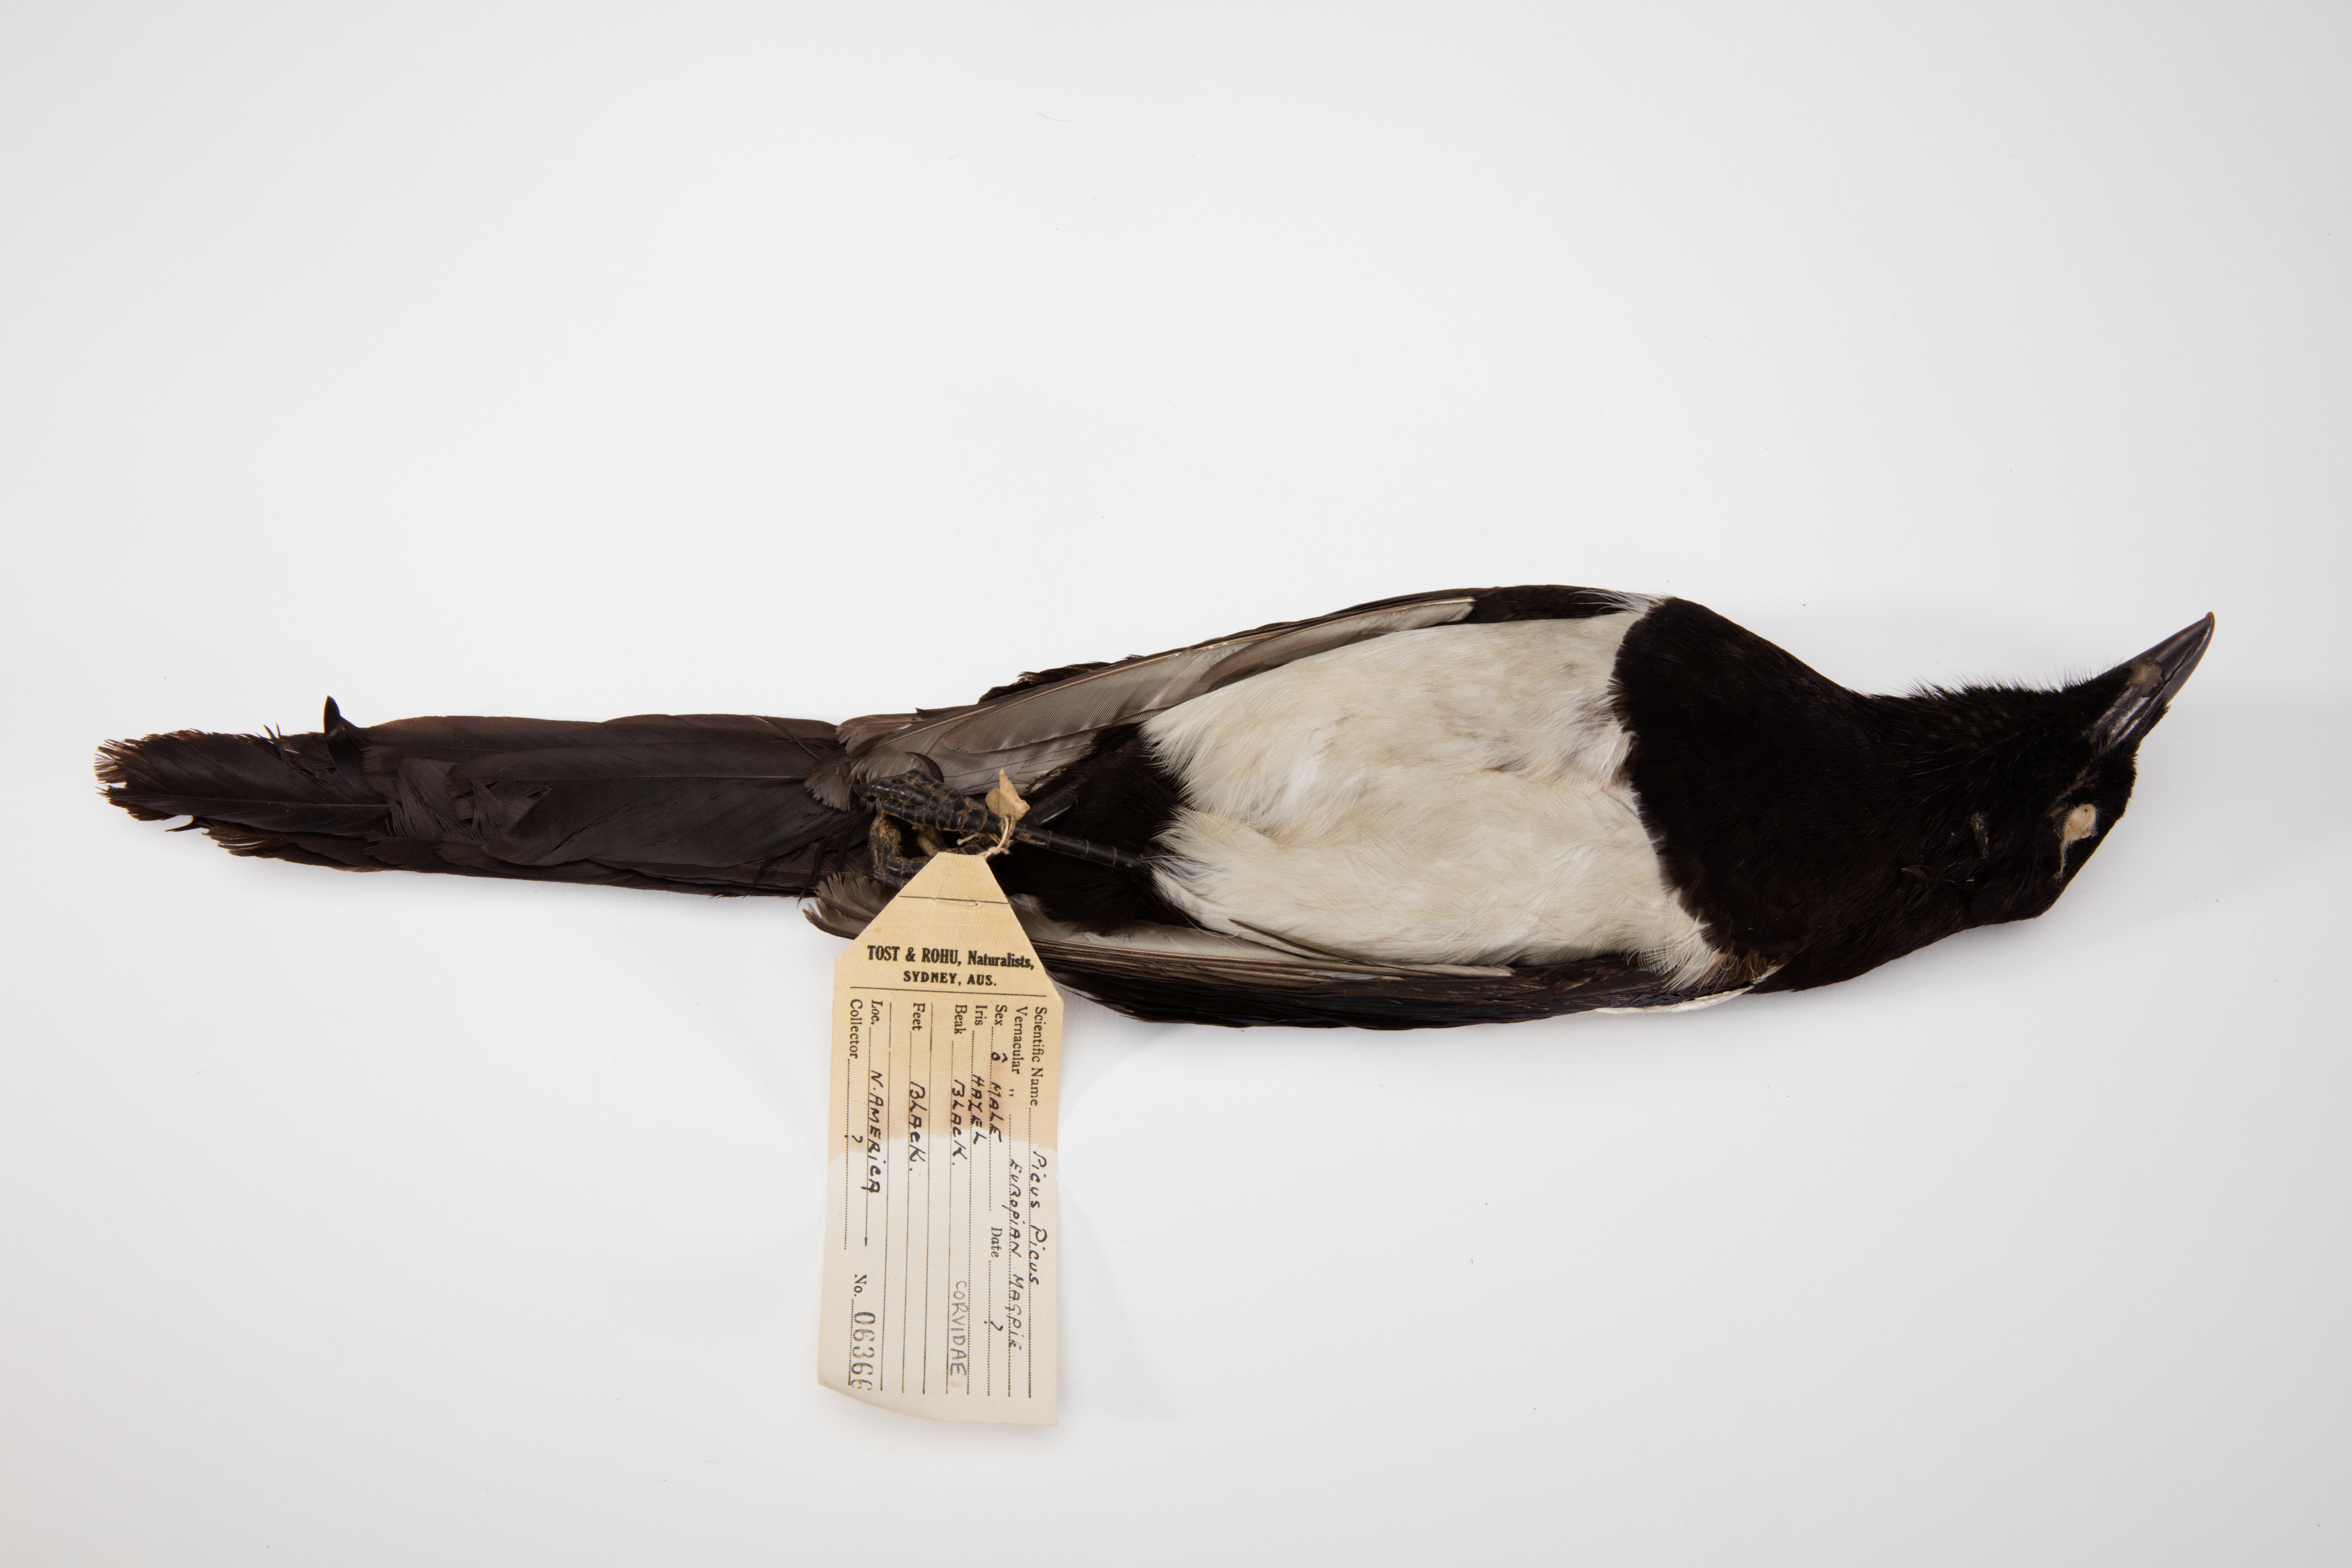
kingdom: Animalia
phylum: Chordata
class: Aves
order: Passeriformes
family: Corvidae
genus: Pica
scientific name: Pica pica
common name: Eurasian magpie
